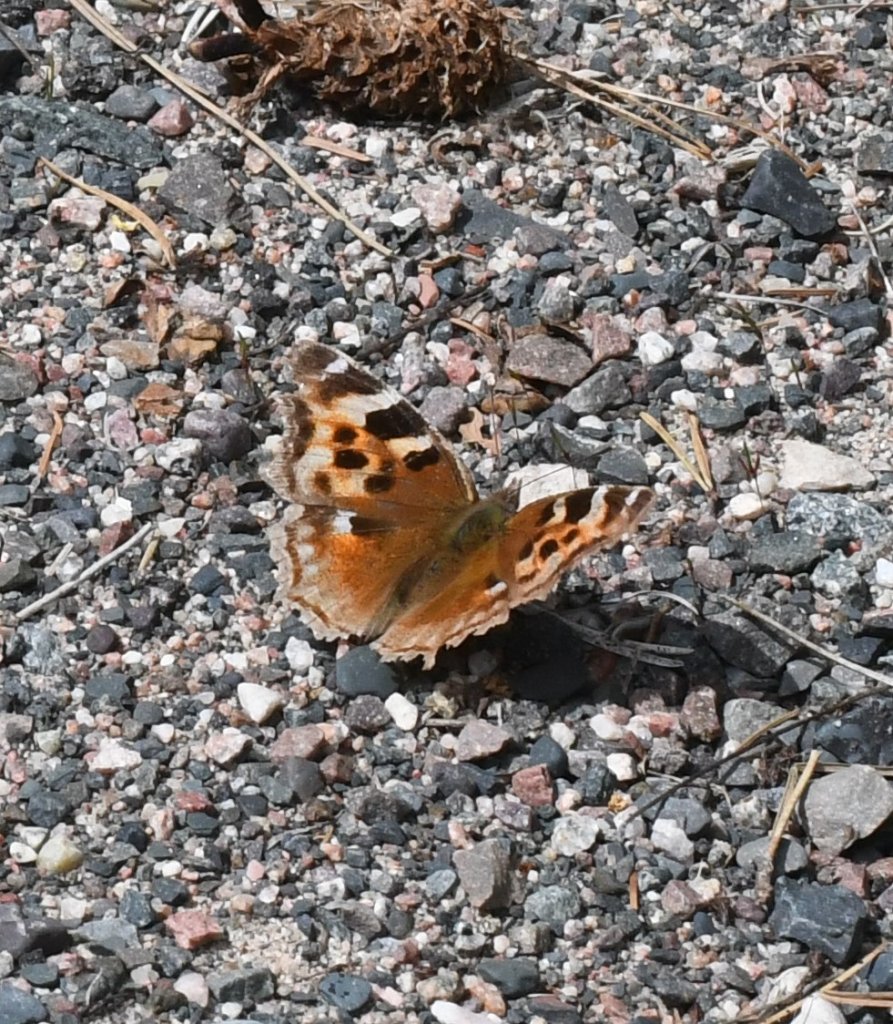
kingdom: Animalia
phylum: Arthropoda
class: Insecta
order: Lepidoptera
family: Nymphalidae
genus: Polygonia
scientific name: Polygonia vaualbum
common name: Compton Tortoiseshell
